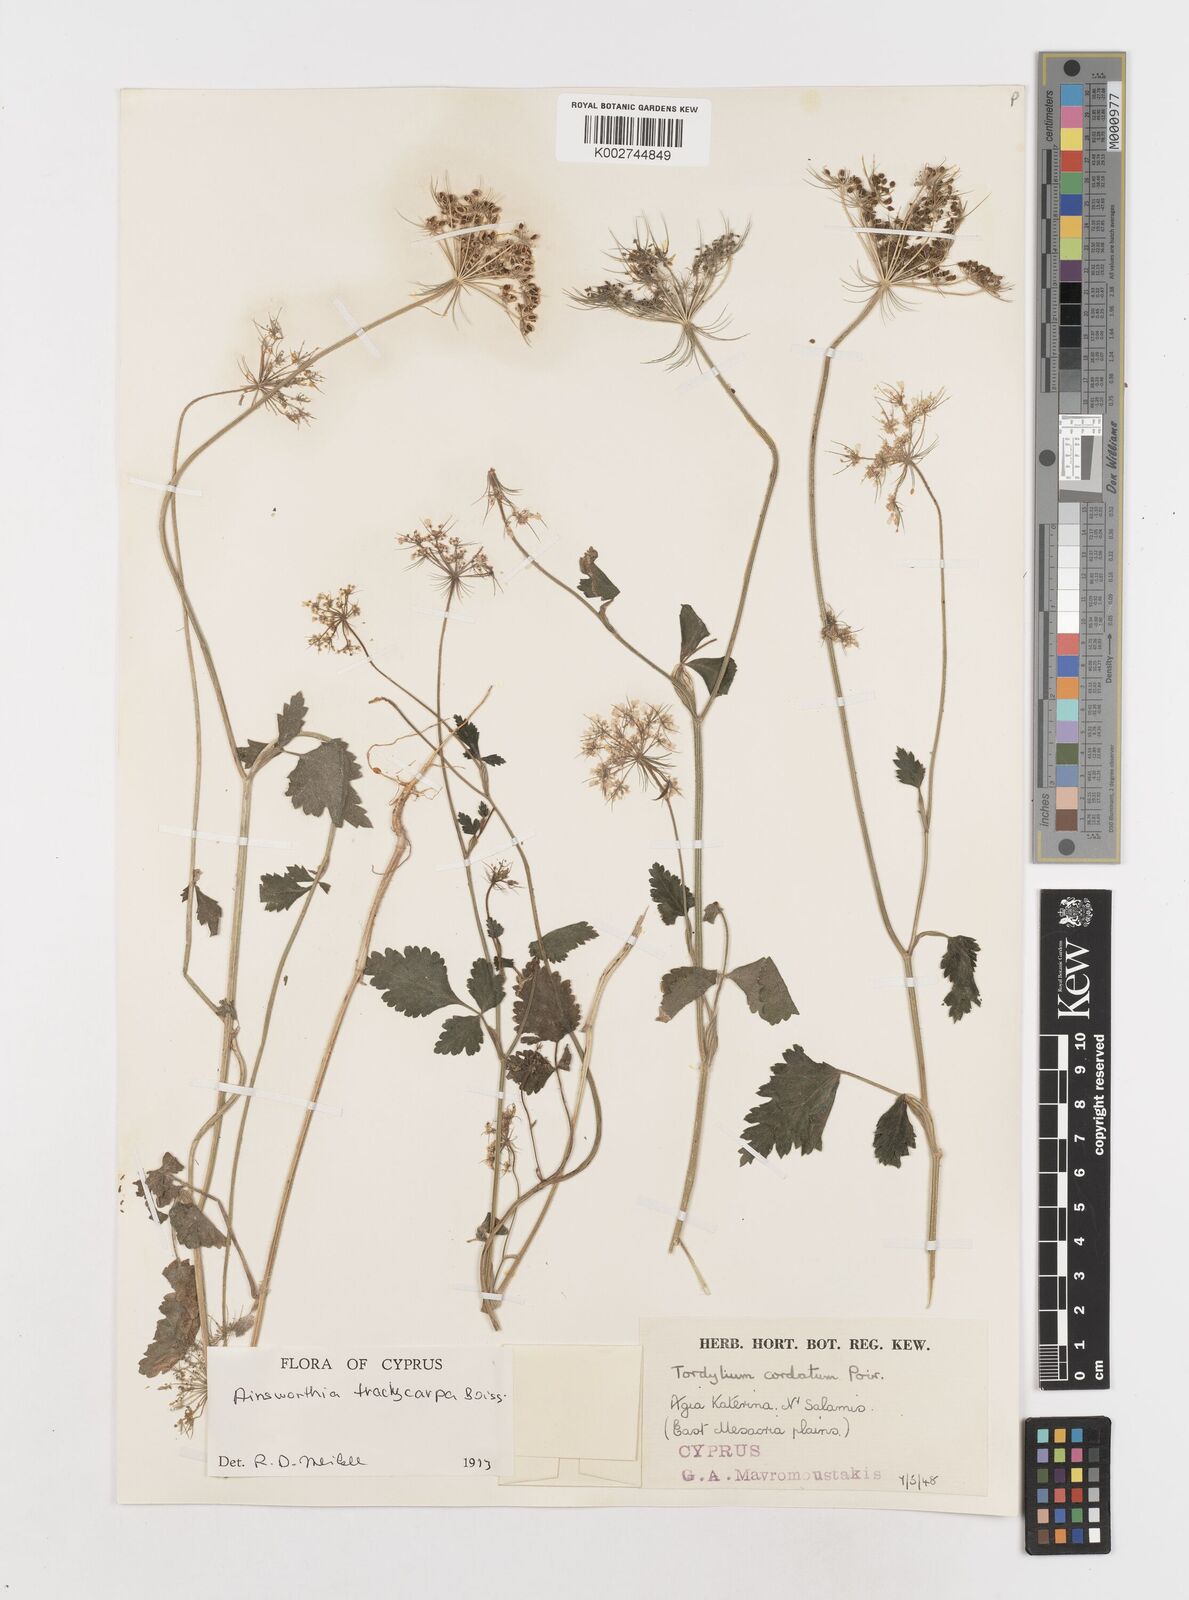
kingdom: Plantae
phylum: Tracheophyta
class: Magnoliopsida
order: Apiales
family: Apiaceae
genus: Ainsworthia
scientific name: Ainsworthia trachycarpa
